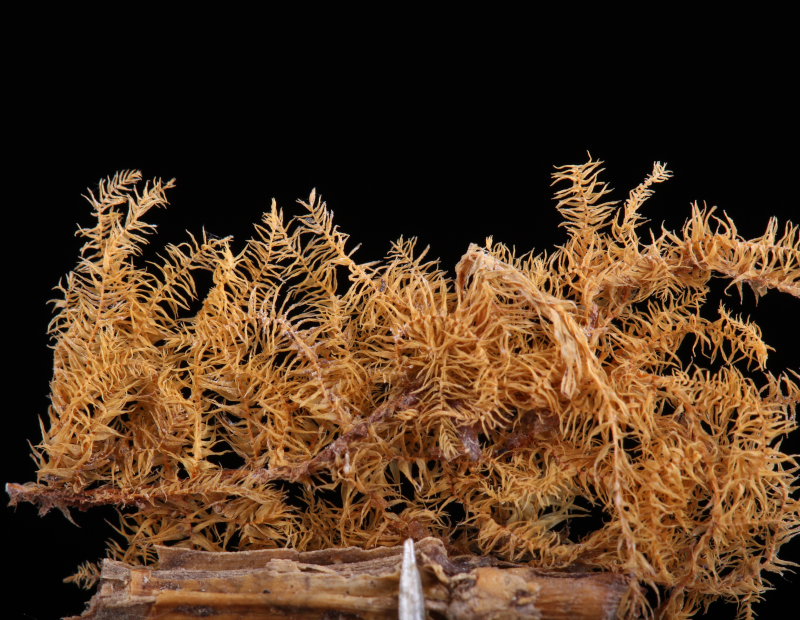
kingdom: Plantae
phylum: Bryophyta
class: Bryopsida
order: Hypnales
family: Meteoriaceae
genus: Floribundaria
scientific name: Floribundaria floribunda
